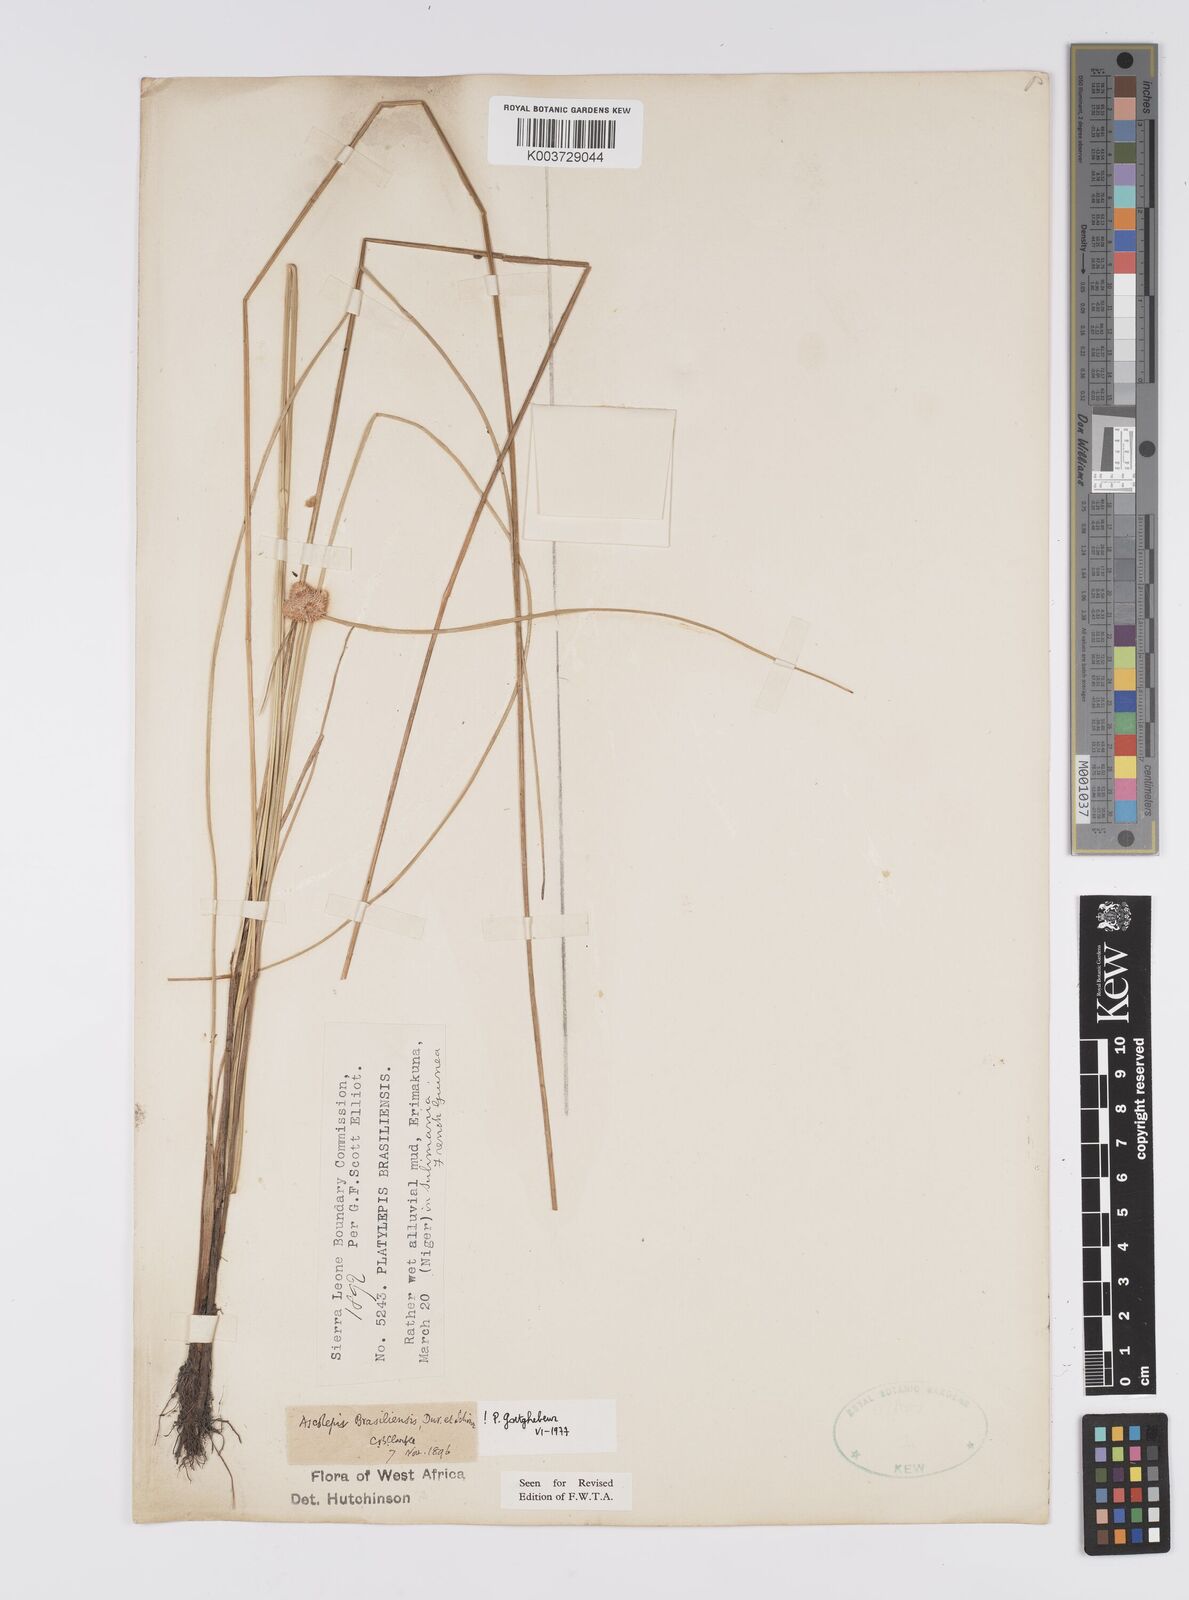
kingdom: Plantae
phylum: Tracheophyta
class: Liliopsida
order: Poales
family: Cyperaceae
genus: Cyperus
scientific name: Cyperus brasiliensis
